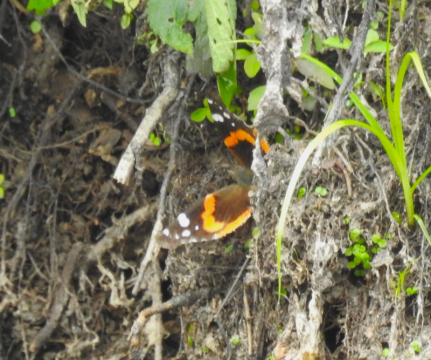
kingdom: Animalia
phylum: Arthropoda
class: Insecta
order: Lepidoptera
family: Nymphalidae
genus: Vanessa
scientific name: Vanessa atalanta
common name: Red Admiral
